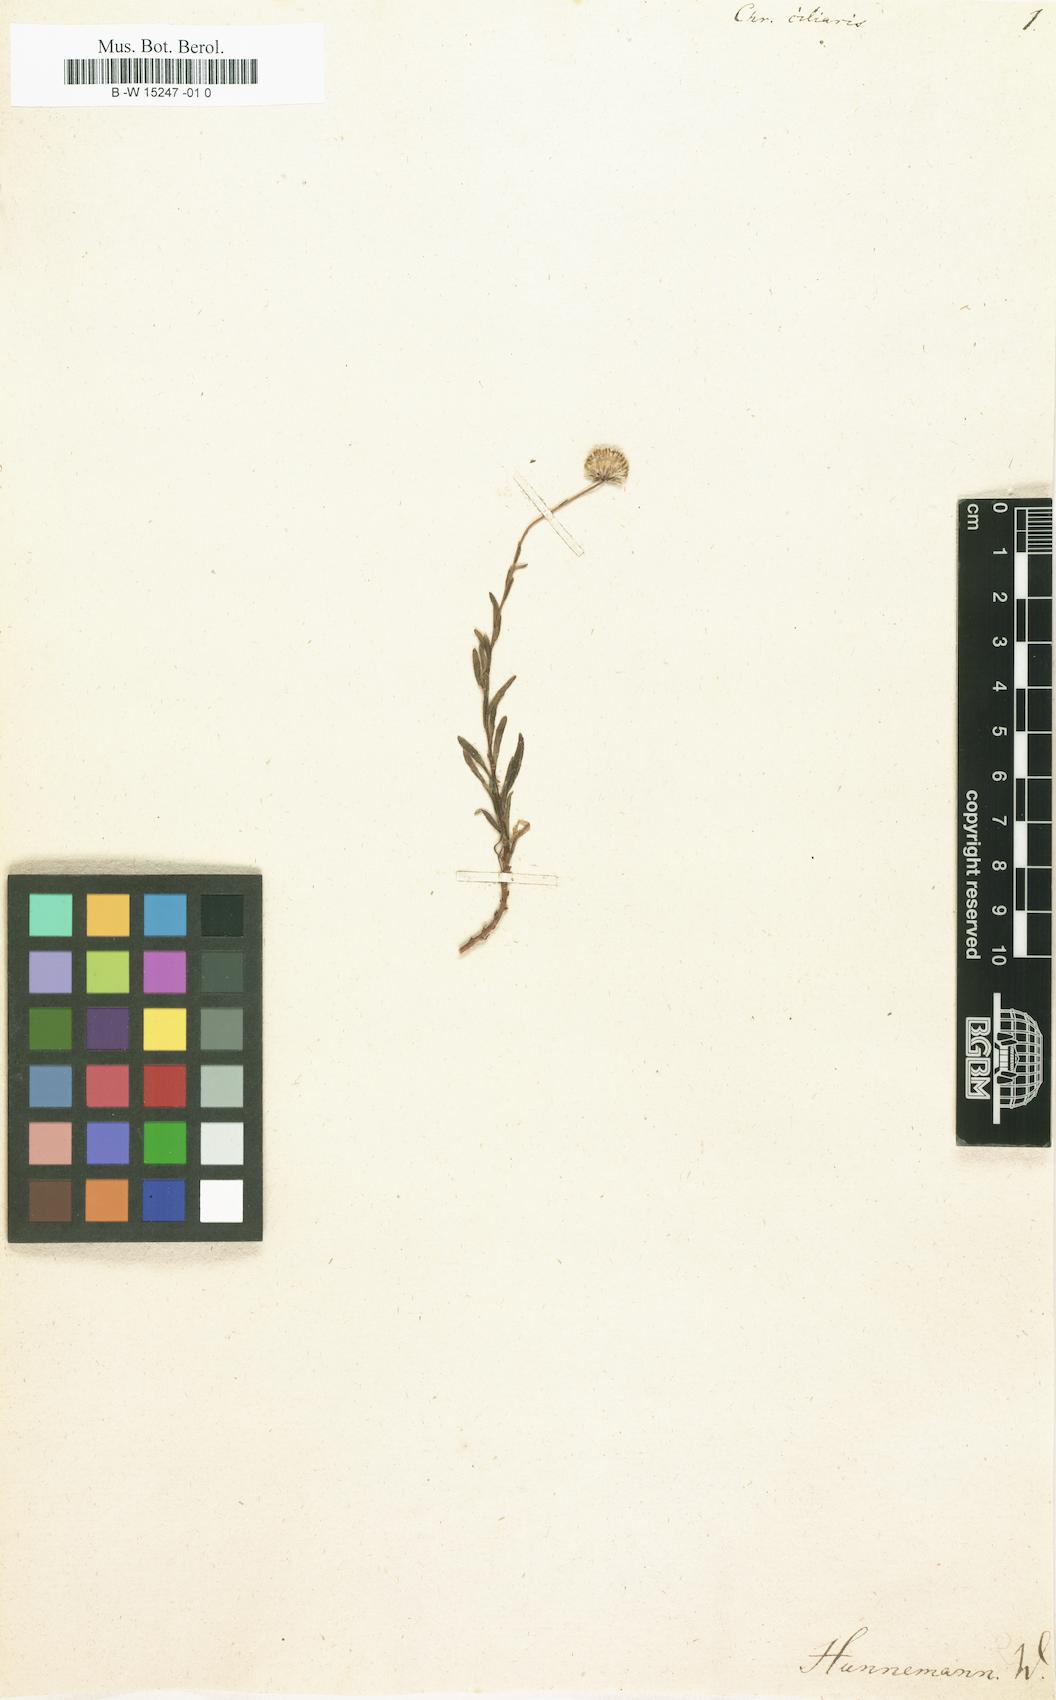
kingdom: Plantae
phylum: Tracheophyta
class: Magnoliopsida
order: Asterales
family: Asteraceae
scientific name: Asteraceae
